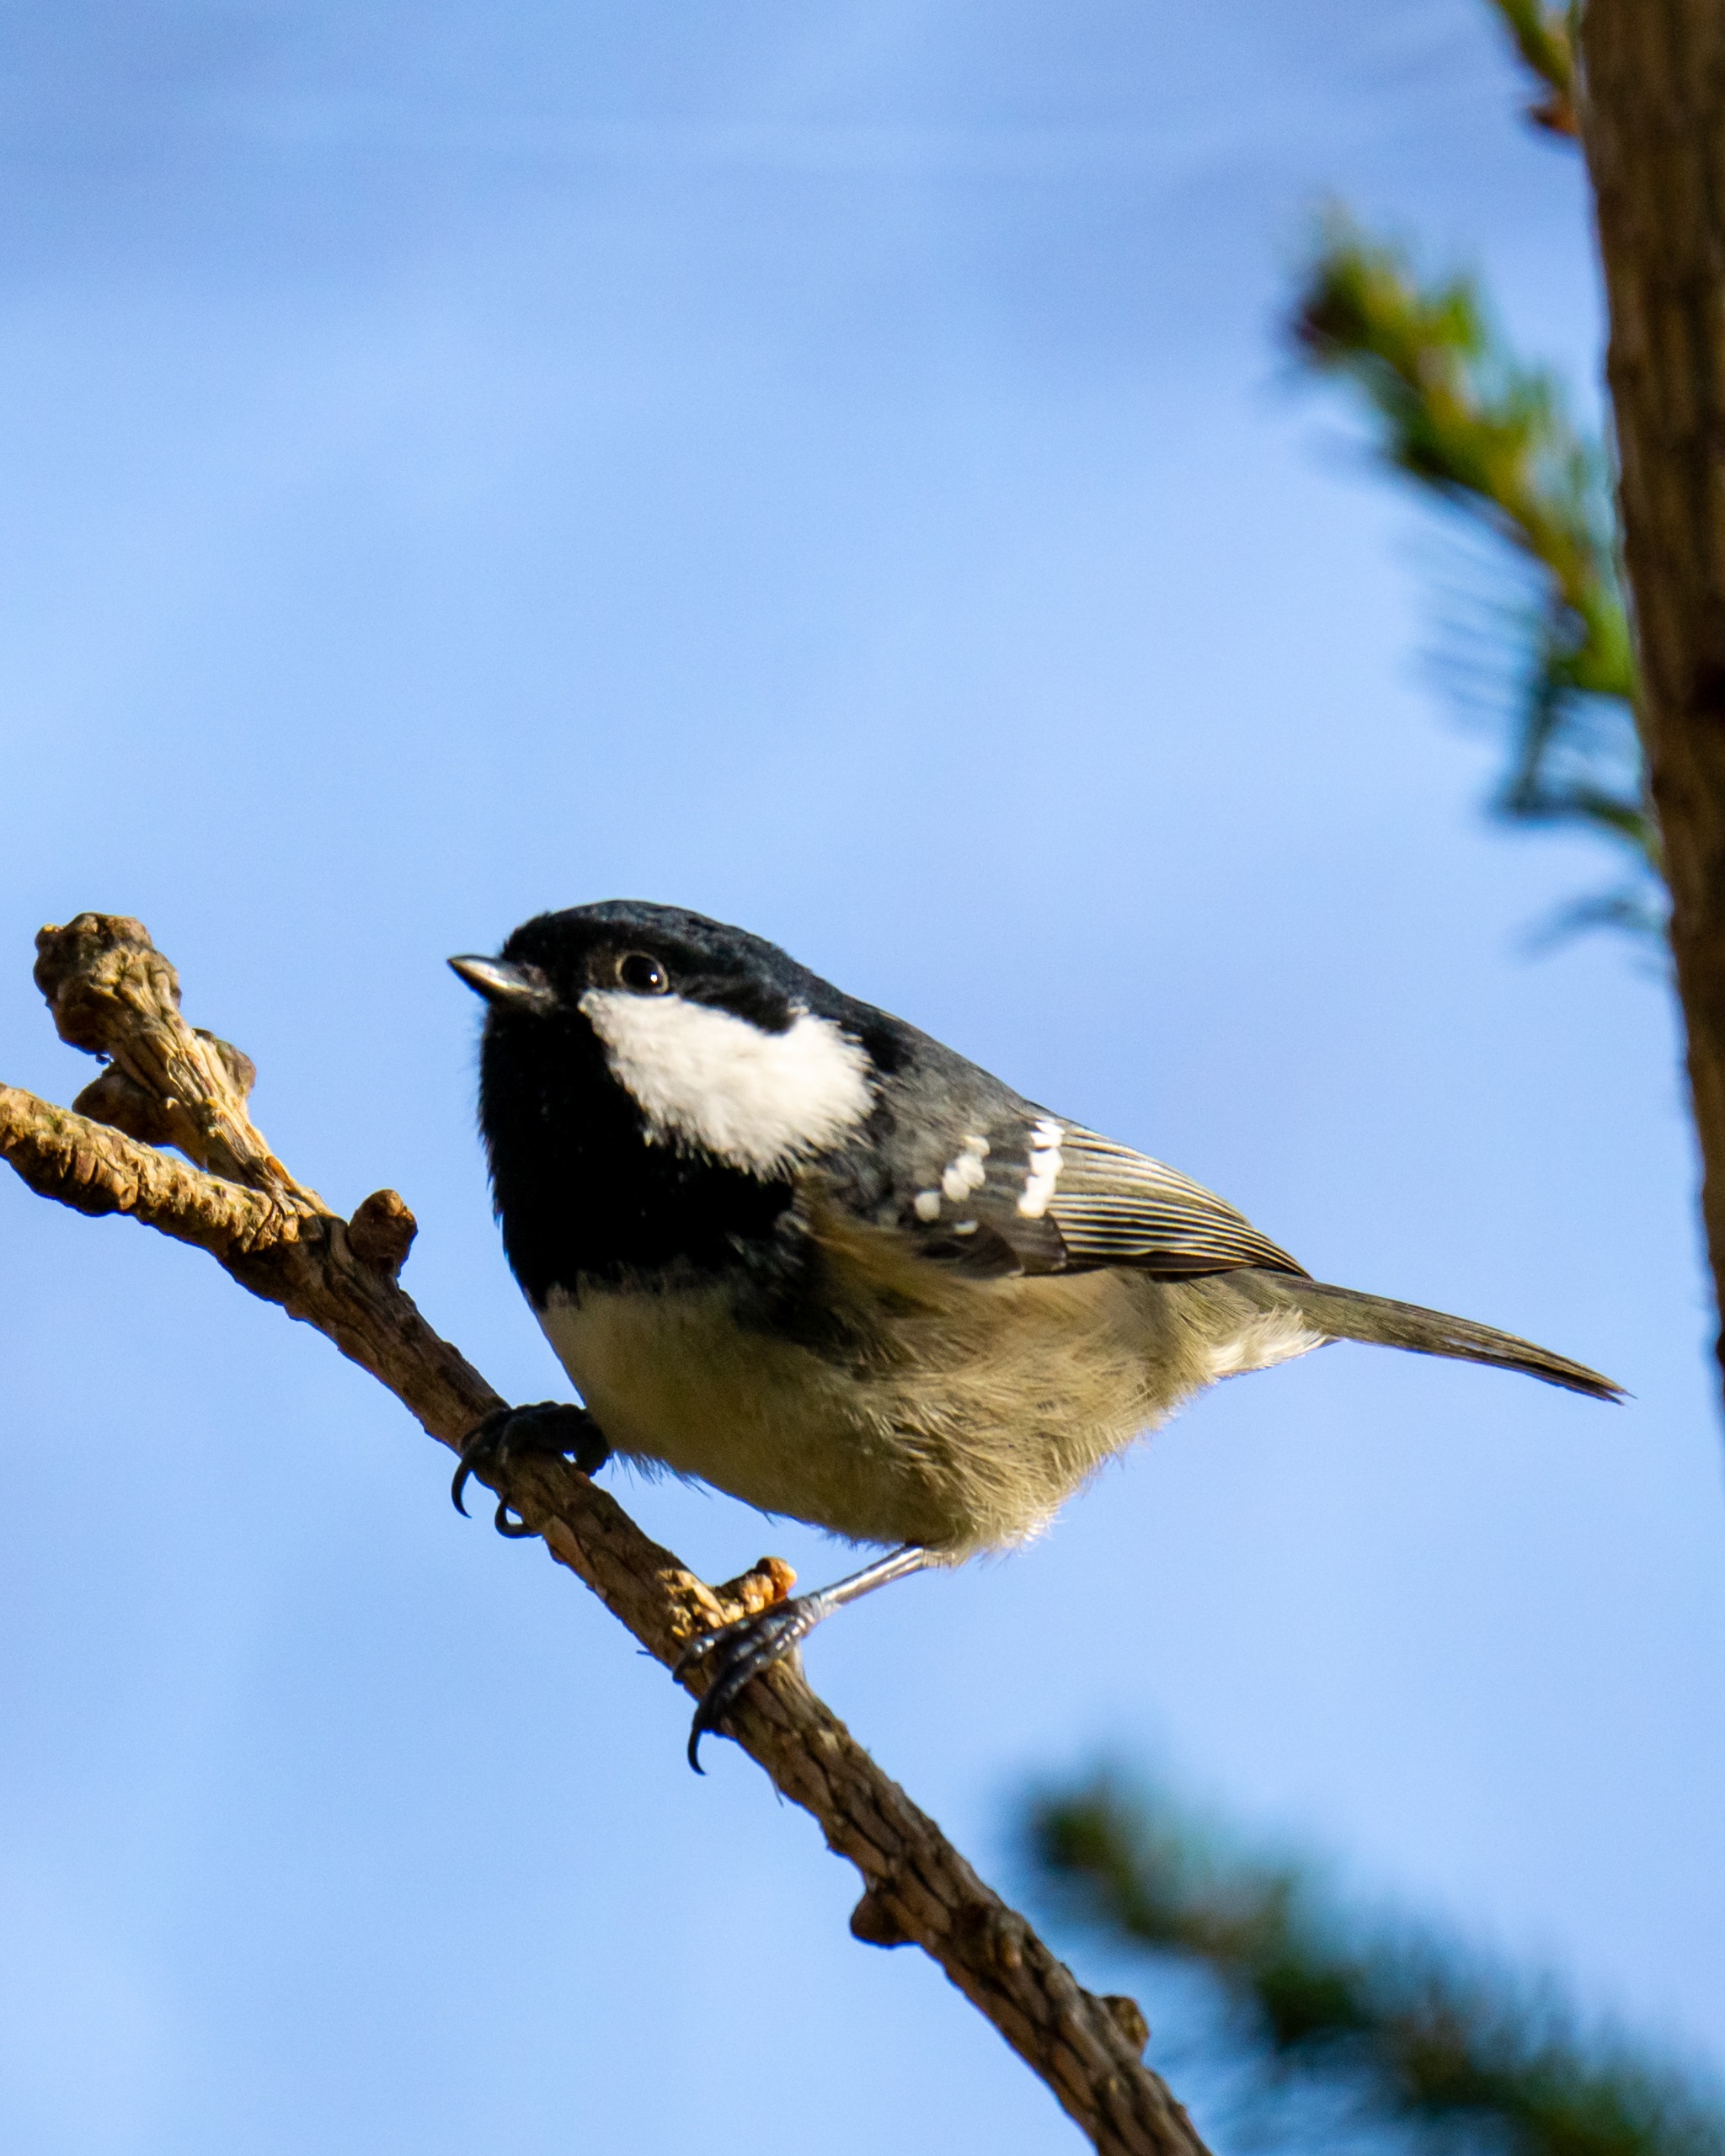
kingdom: Animalia
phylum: Chordata
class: Aves
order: Passeriformes
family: Paridae
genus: Periparus
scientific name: Periparus ater
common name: Sortmejse
